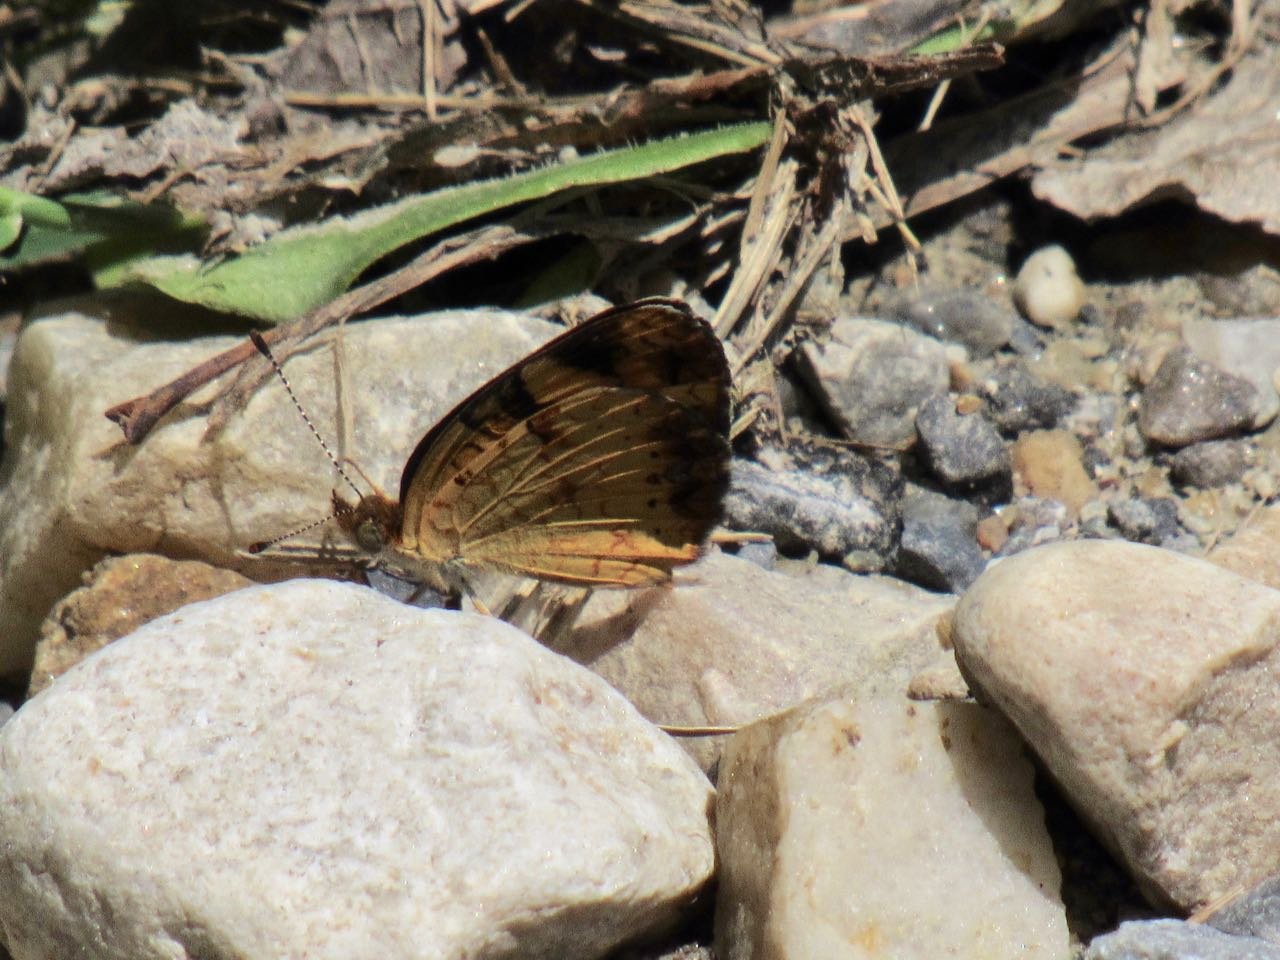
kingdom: Animalia
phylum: Arthropoda
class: Insecta
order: Lepidoptera
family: Nymphalidae
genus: Phyciodes
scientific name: Phyciodes tharos
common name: Pearl Crescent
